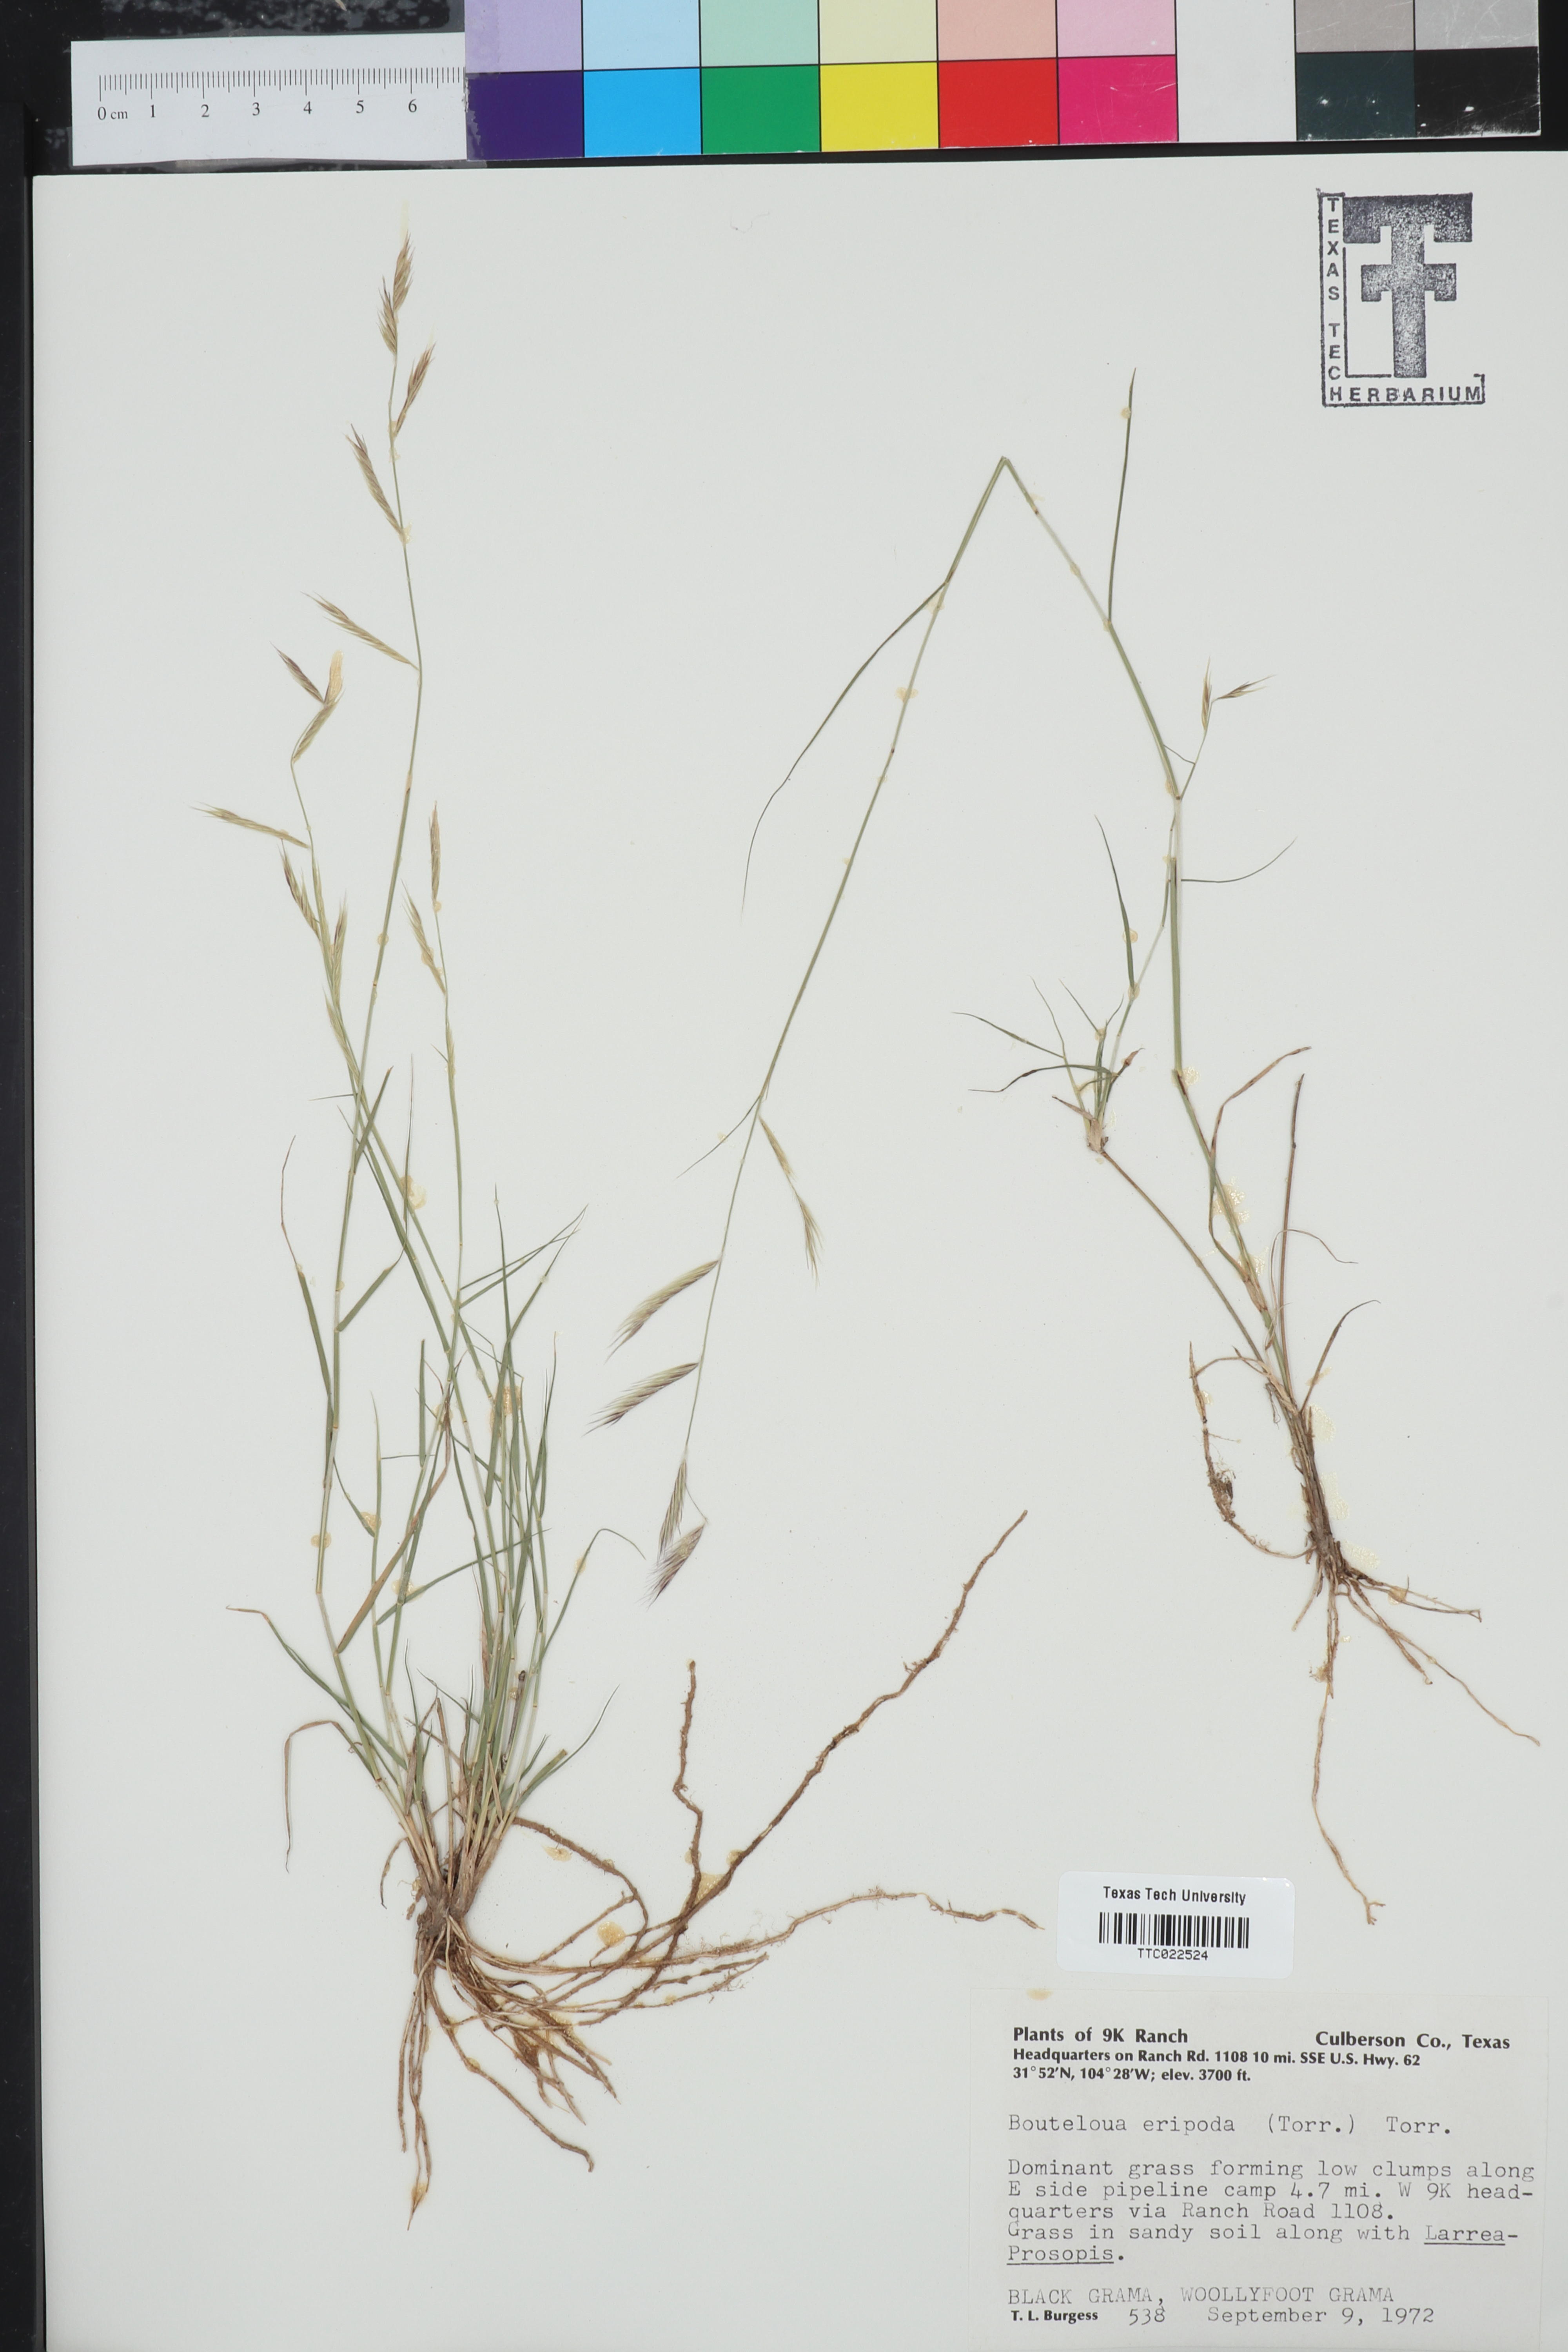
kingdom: Plantae
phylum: Tracheophyta
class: Liliopsida
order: Poales
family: Poaceae
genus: Bouteloua
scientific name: Bouteloua eriopoda
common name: Woolly foot grama
